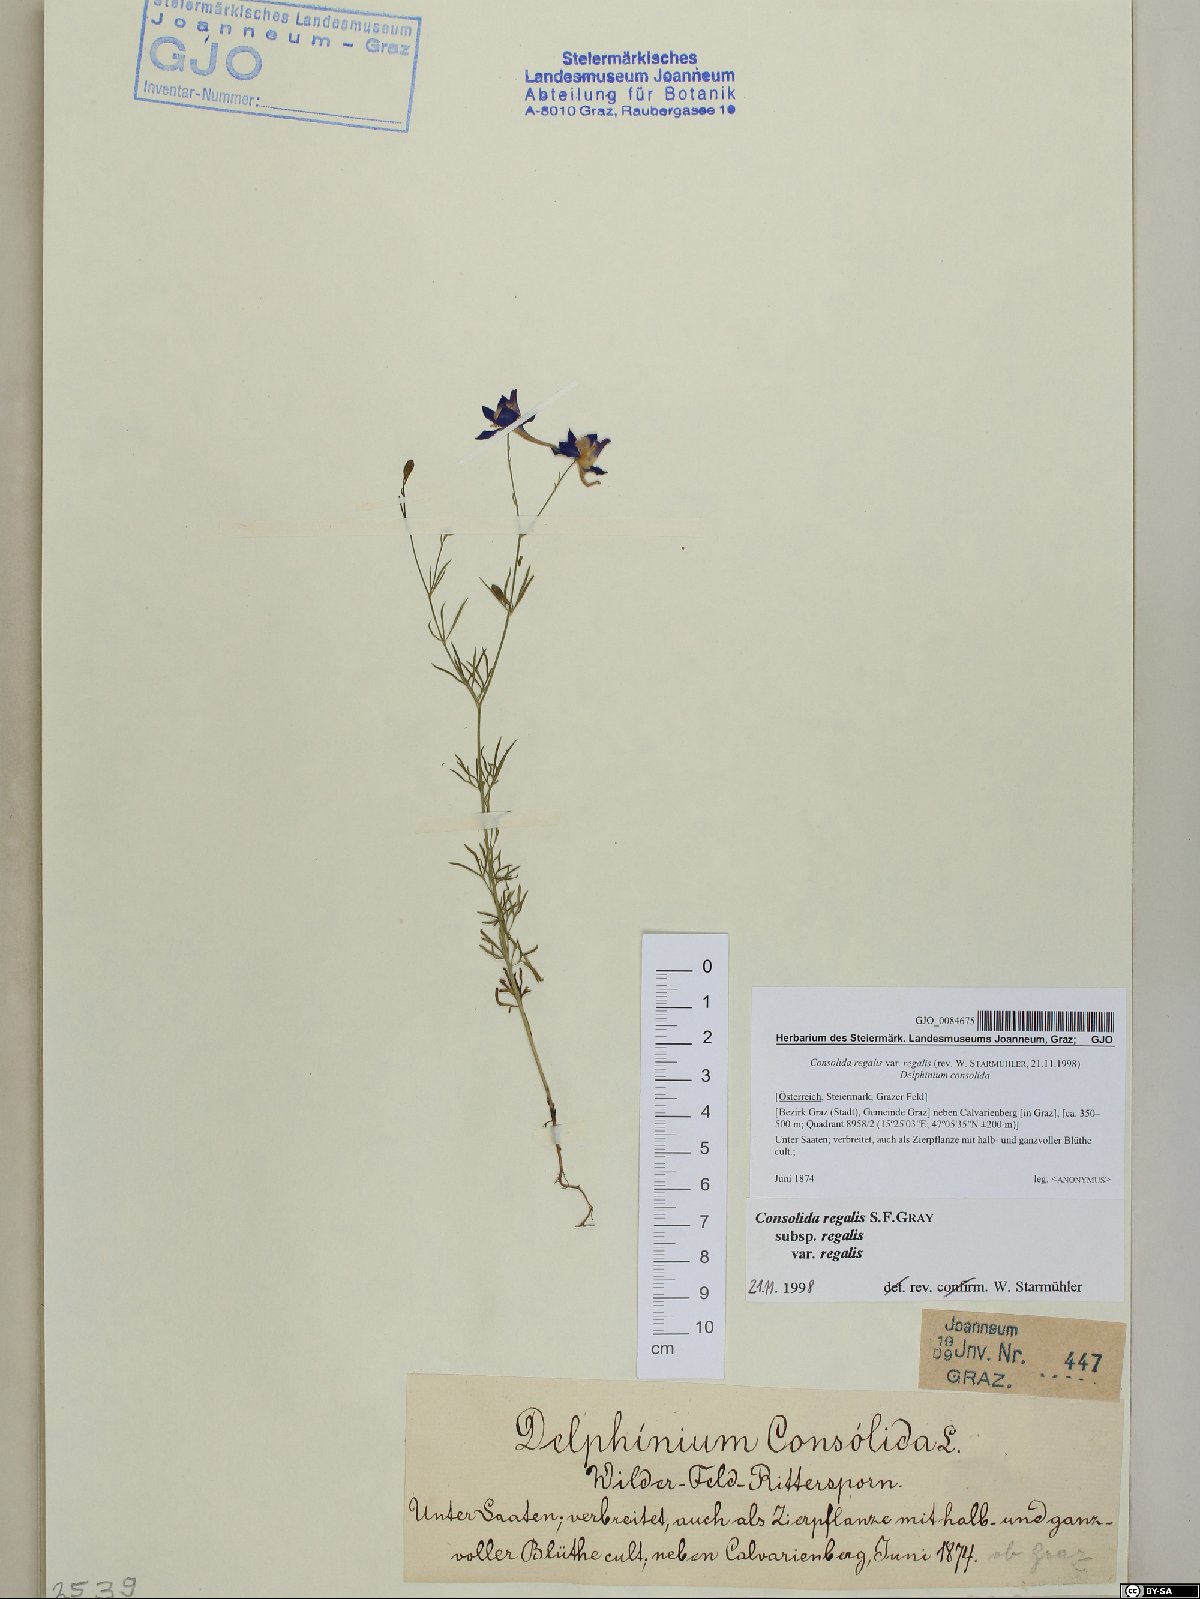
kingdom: Plantae
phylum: Tracheophyta
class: Magnoliopsida
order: Ranunculales
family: Ranunculaceae
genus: Delphinium
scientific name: Delphinium consolida
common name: Branching larkspur
